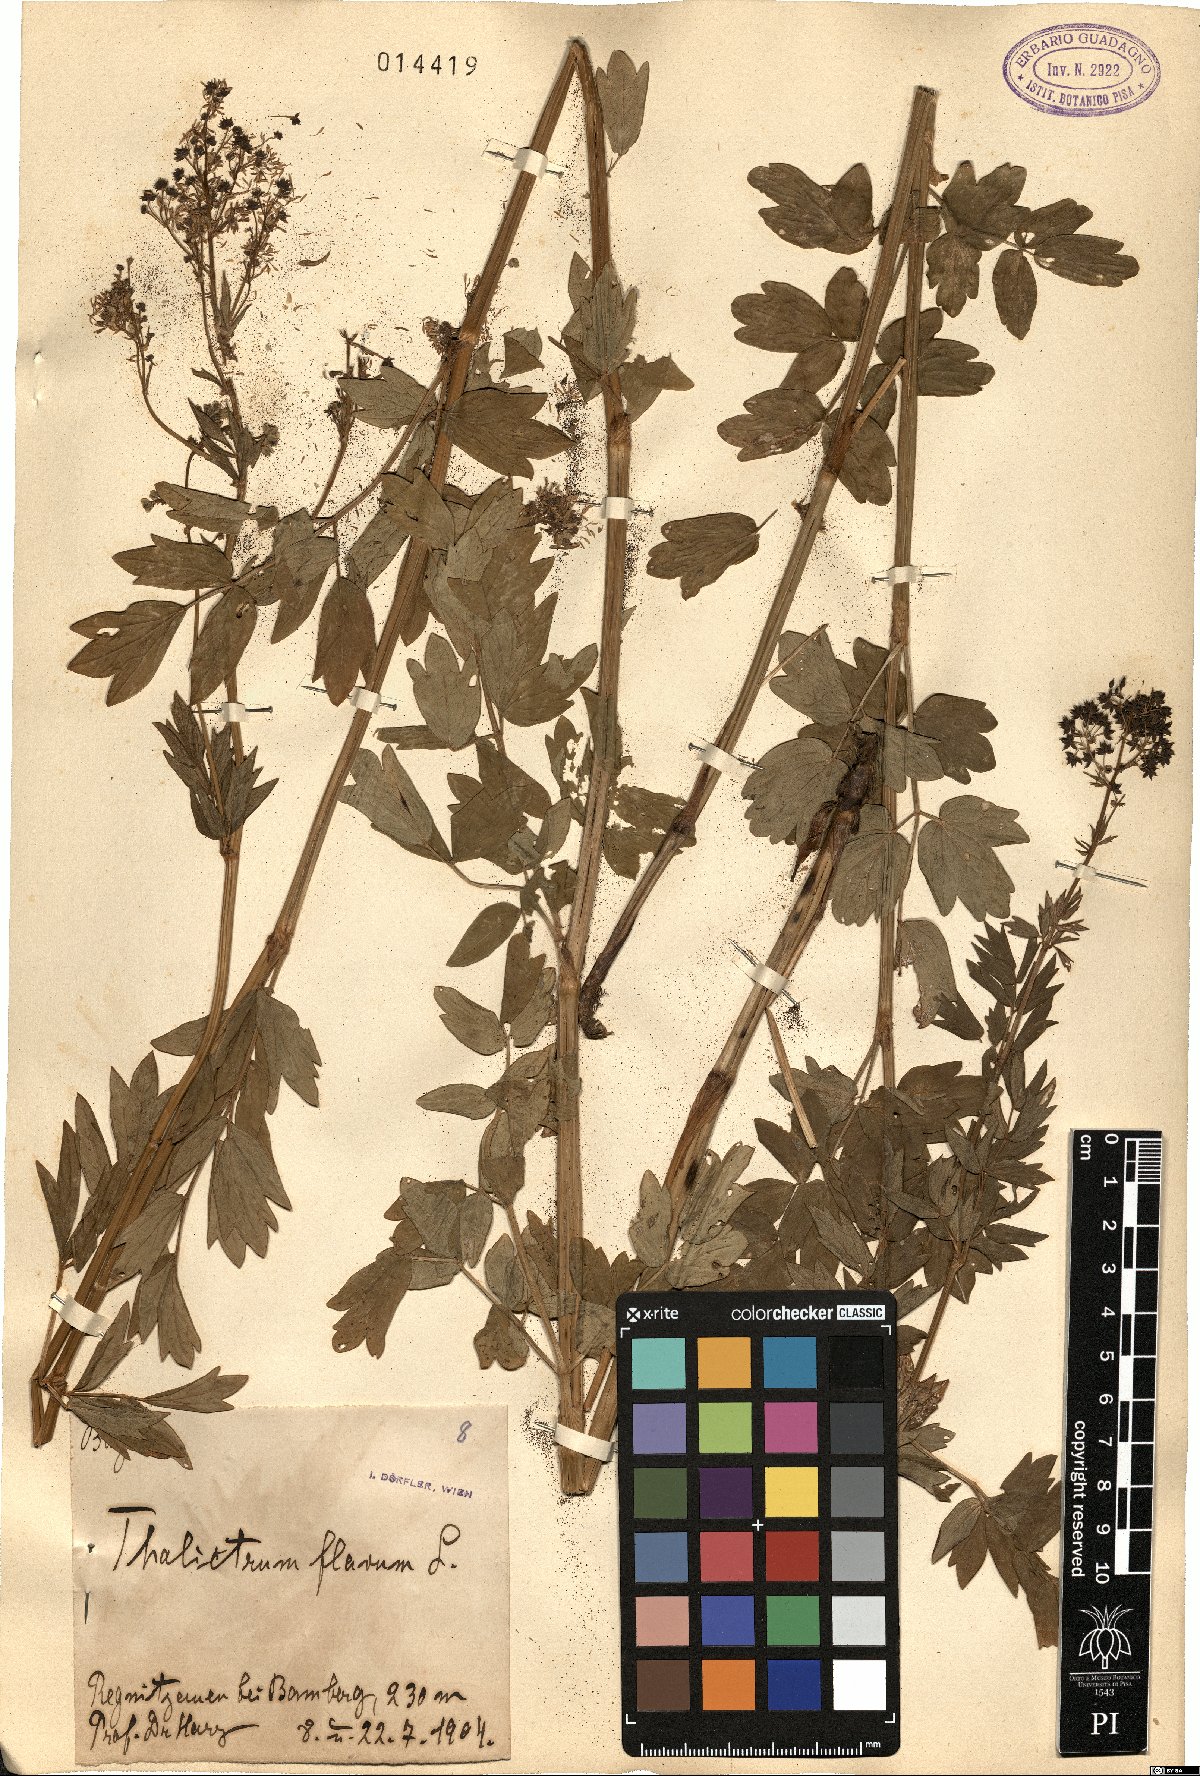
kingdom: Plantae
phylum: Tracheophyta
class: Magnoliopsida
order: Lamiales
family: Lamiaceae
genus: Teucrium
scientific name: Teucrium flavum
